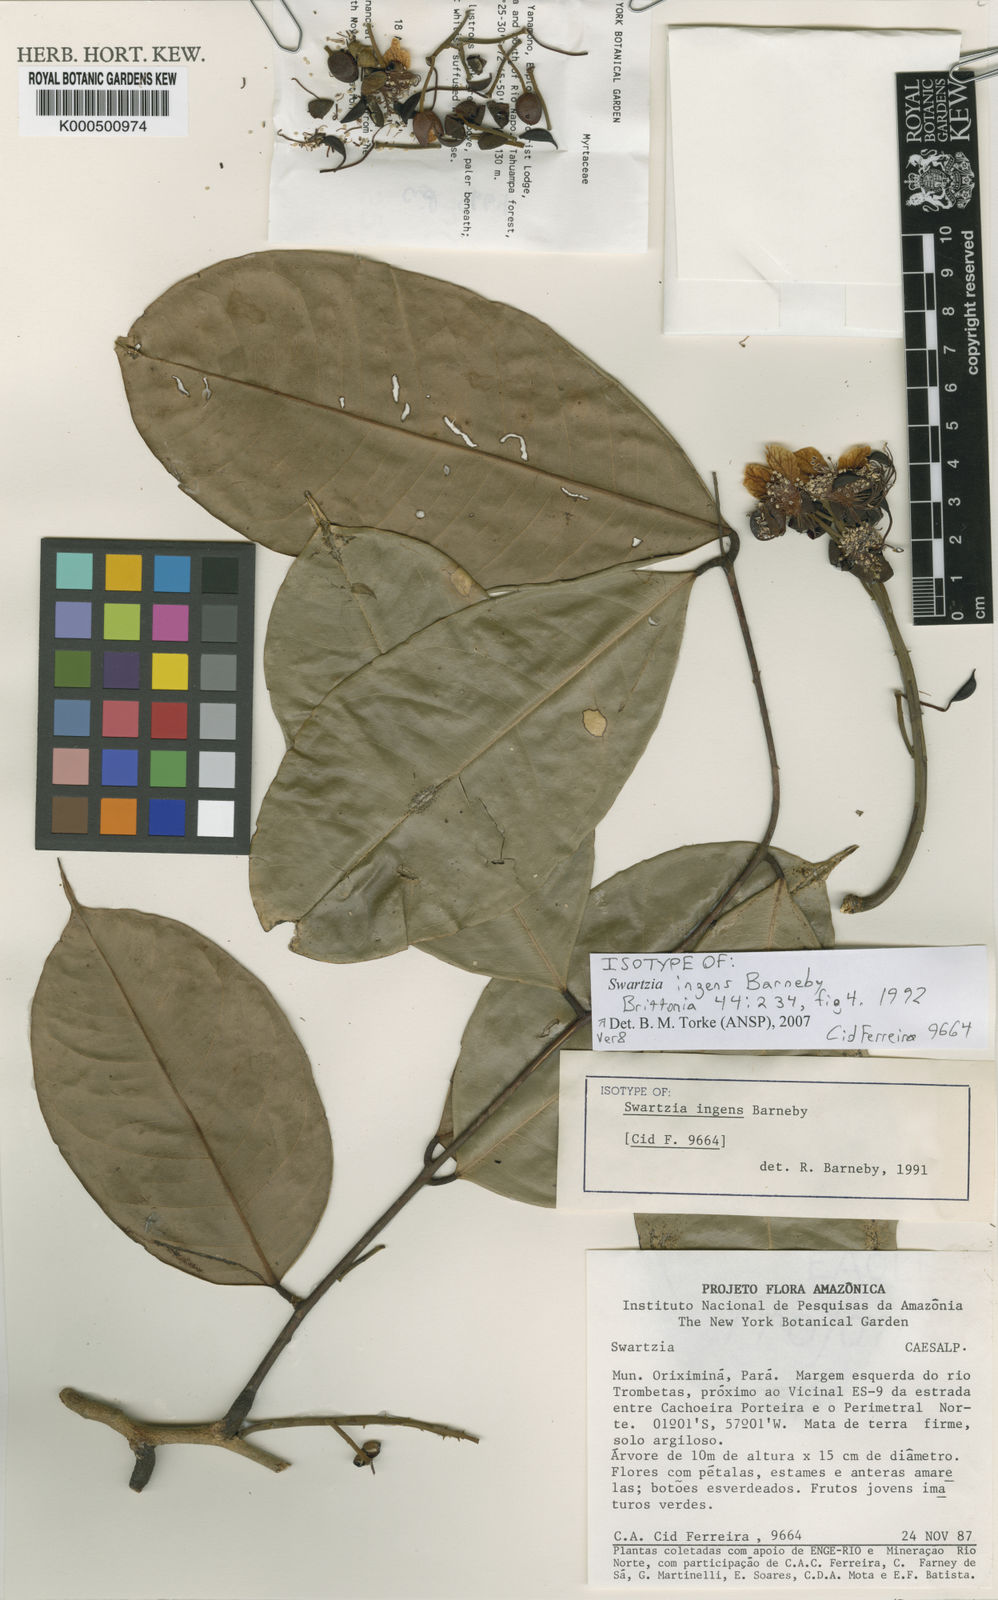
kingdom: Plantae
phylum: Tracheophyta
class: Magnoliopsida
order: Fabales
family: Fabaceae
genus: Swartzia
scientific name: Swartzia ingens
